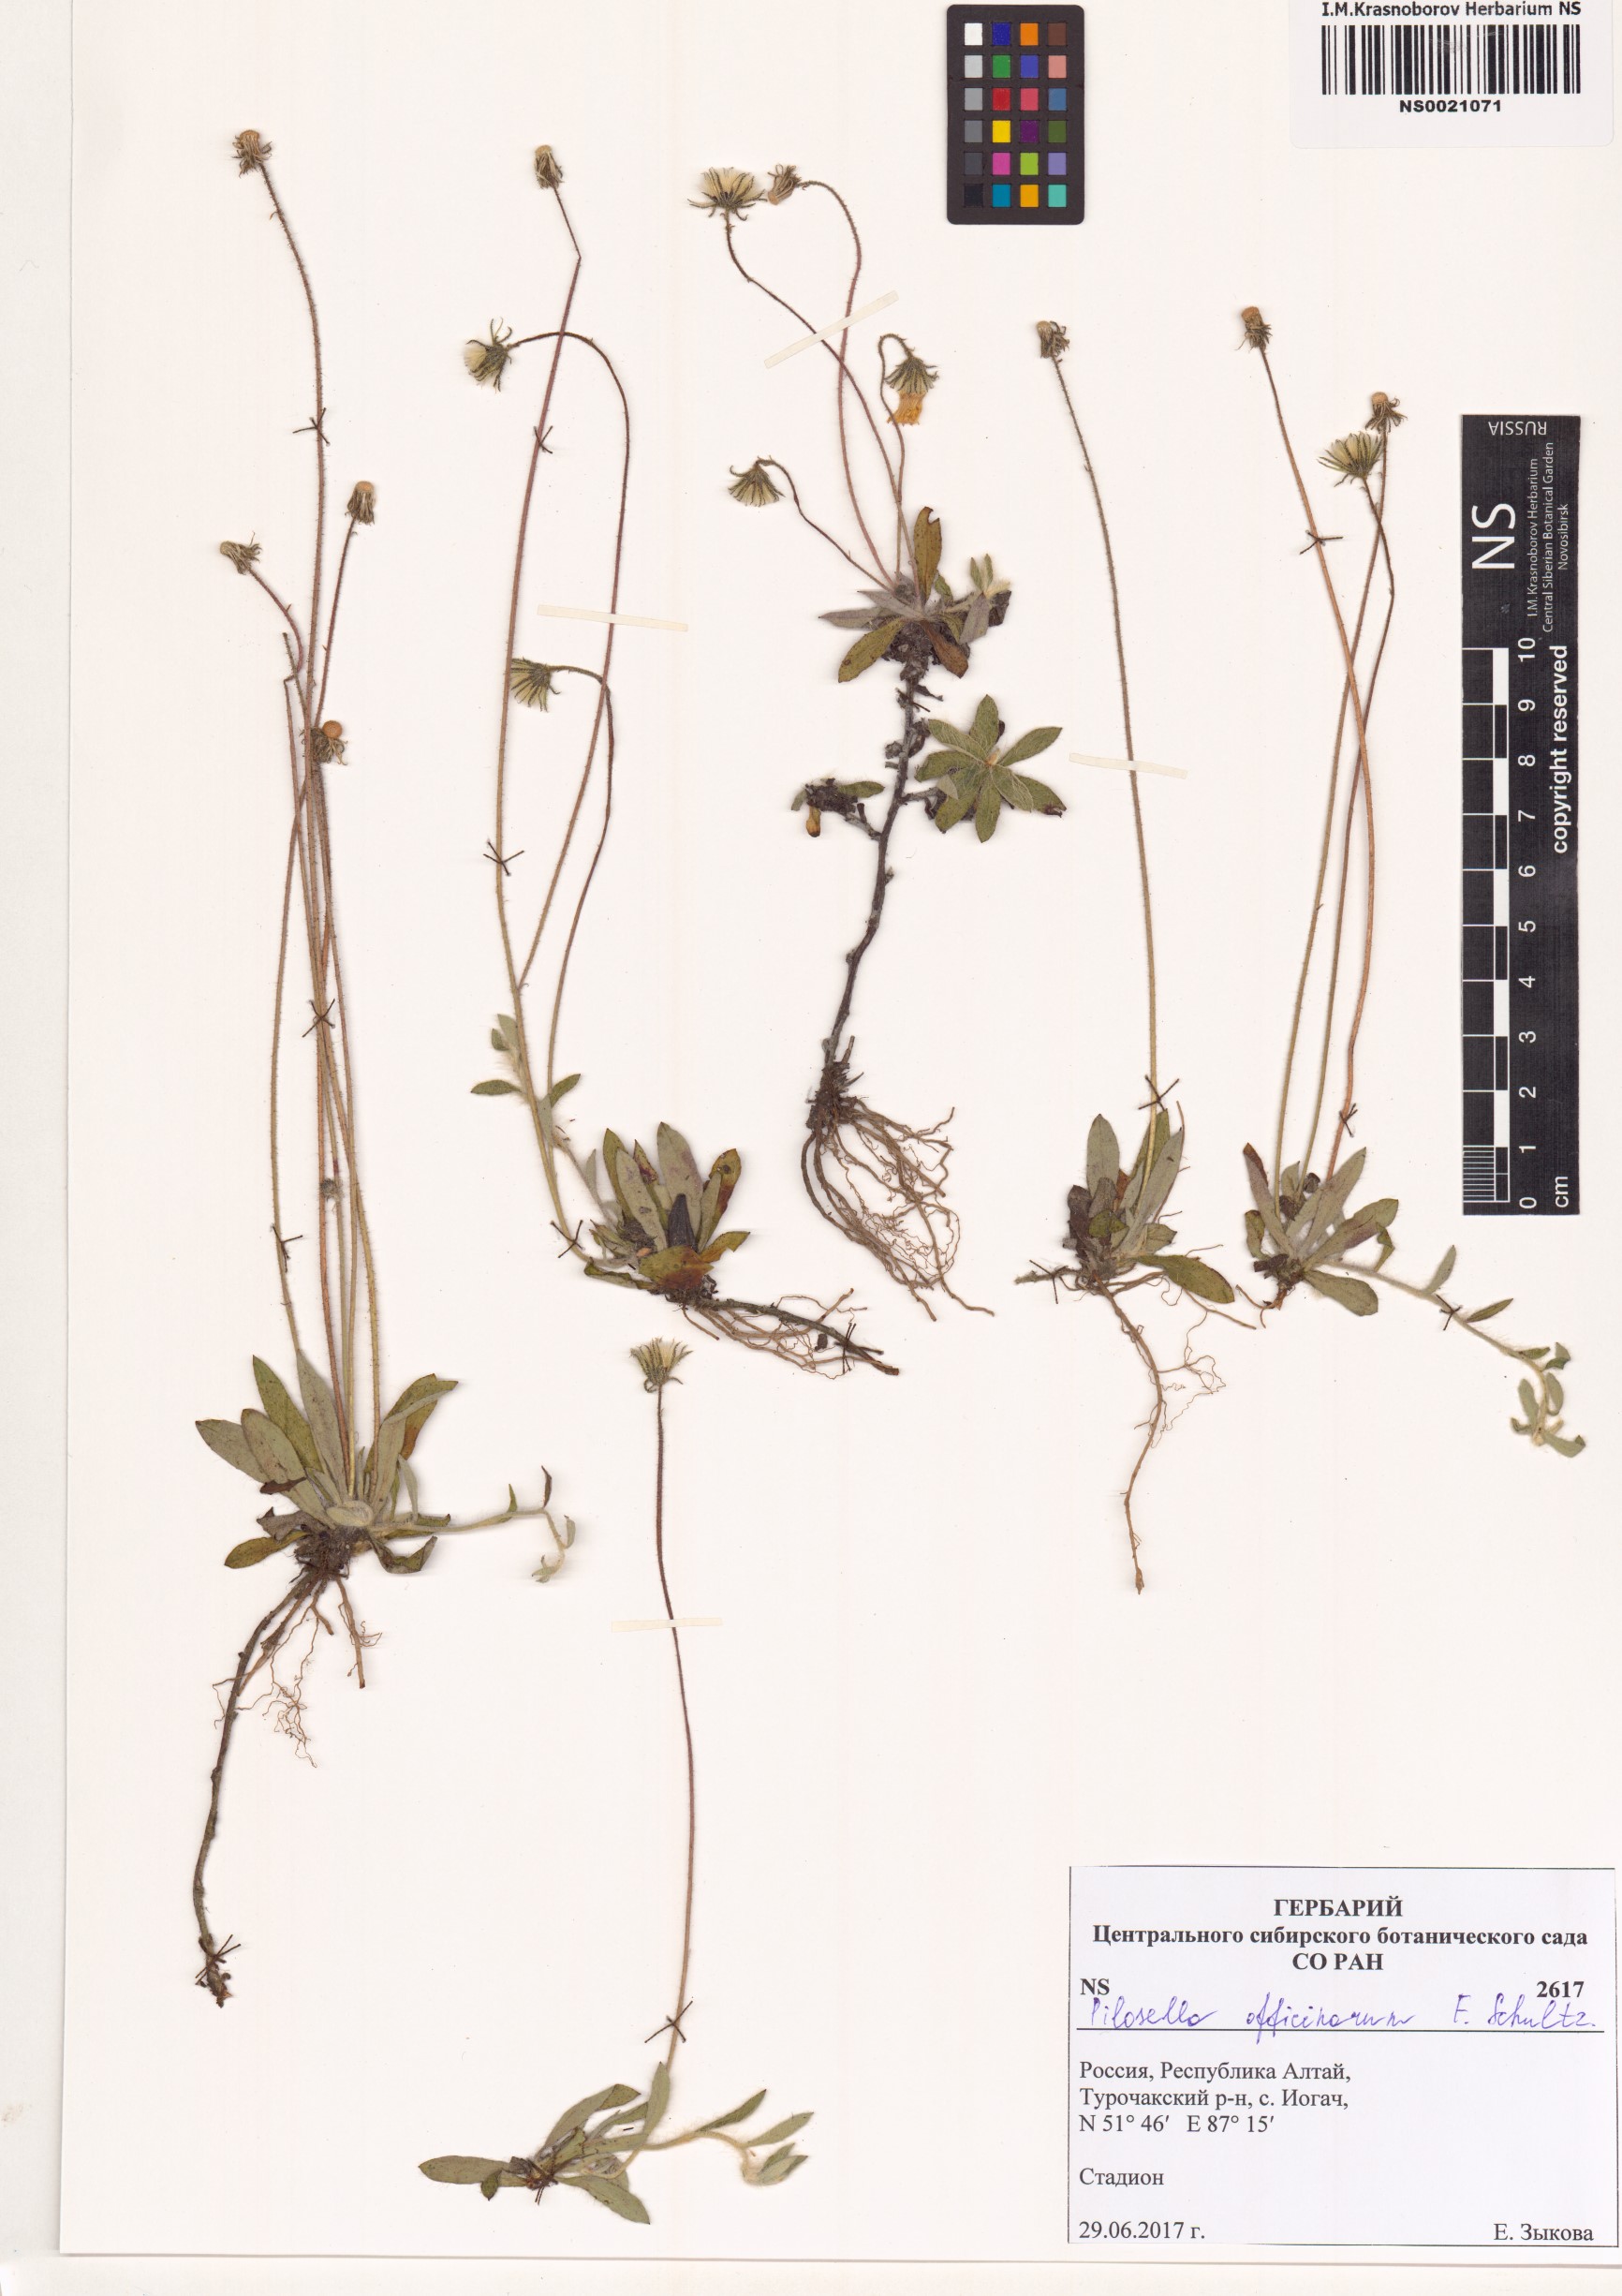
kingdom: Plantae
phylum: Tracheophyta
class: Magnoliopsida
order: Asterales
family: Asteraceae
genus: Pilosella
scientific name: Pilosella officinarum
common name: Mouse-ear hawkweed
